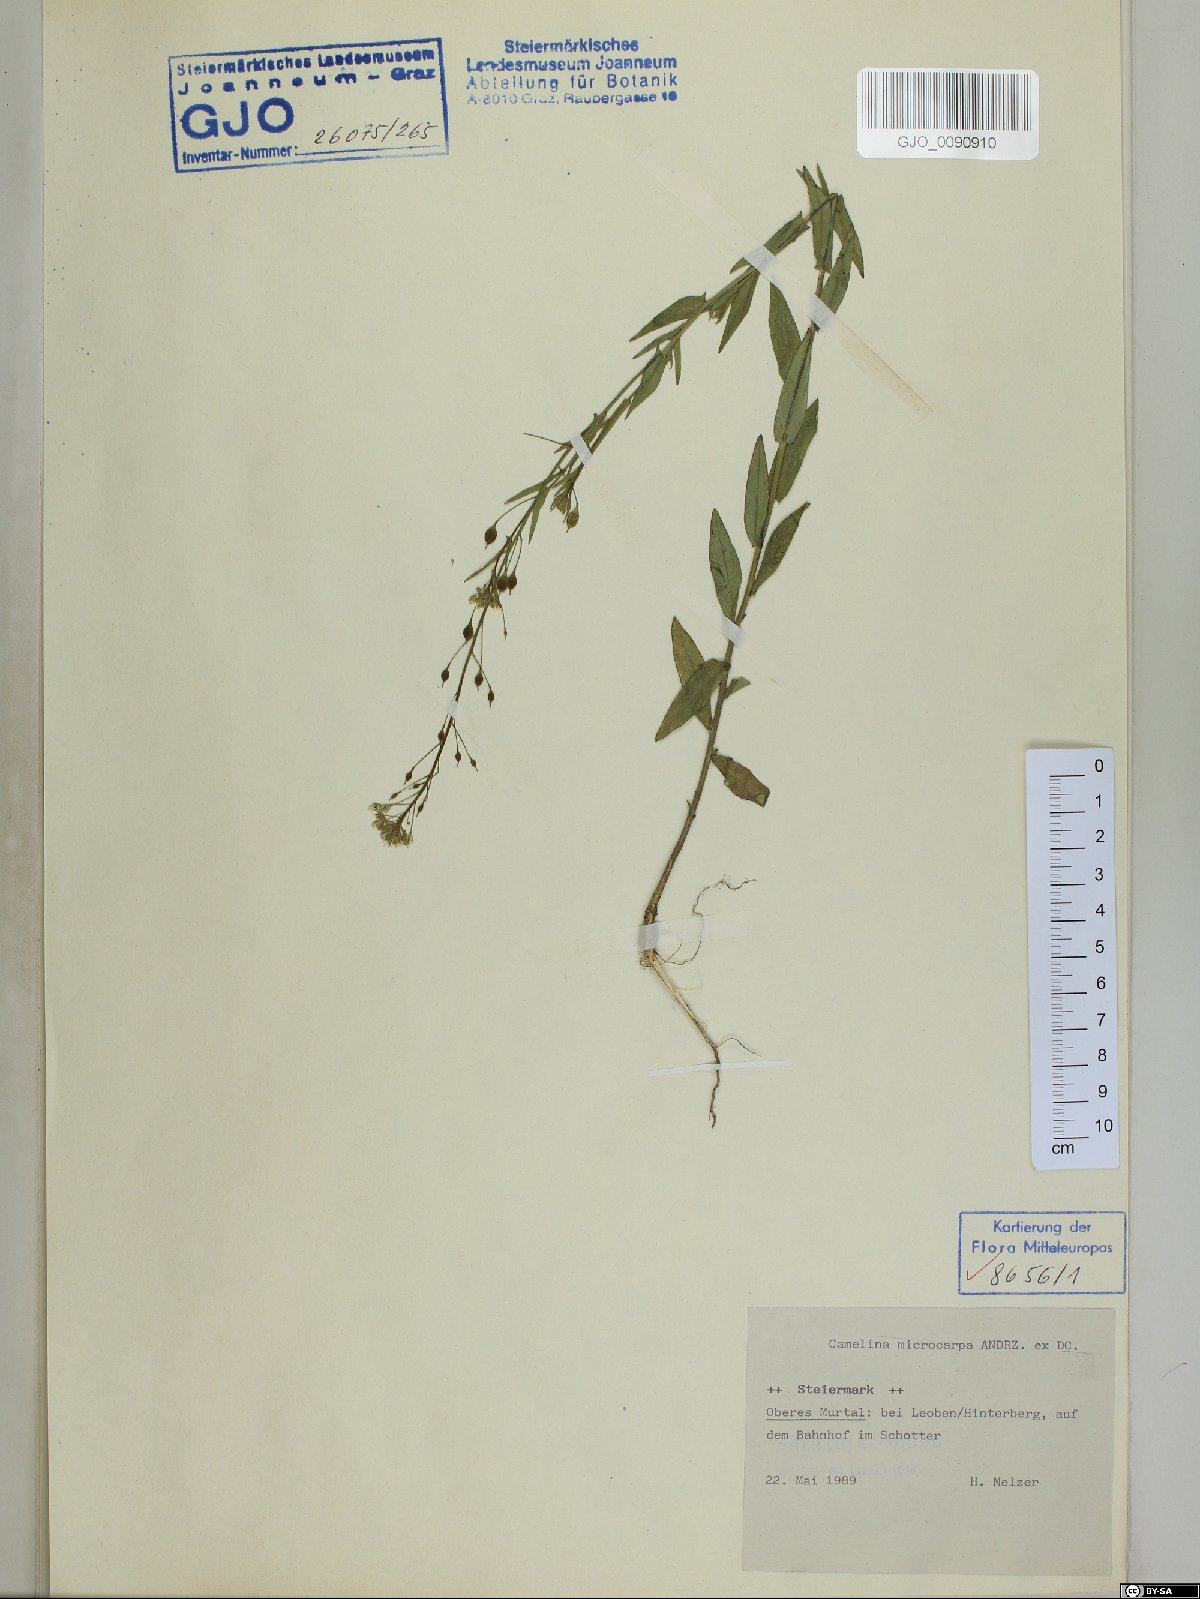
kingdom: Plantae
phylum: Tracheophyta
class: Magnoliopsida
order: Brassicales
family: Brassicaceae
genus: Camelina
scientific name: Camelina microcarpa
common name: Lesser gold-of-pleasure
